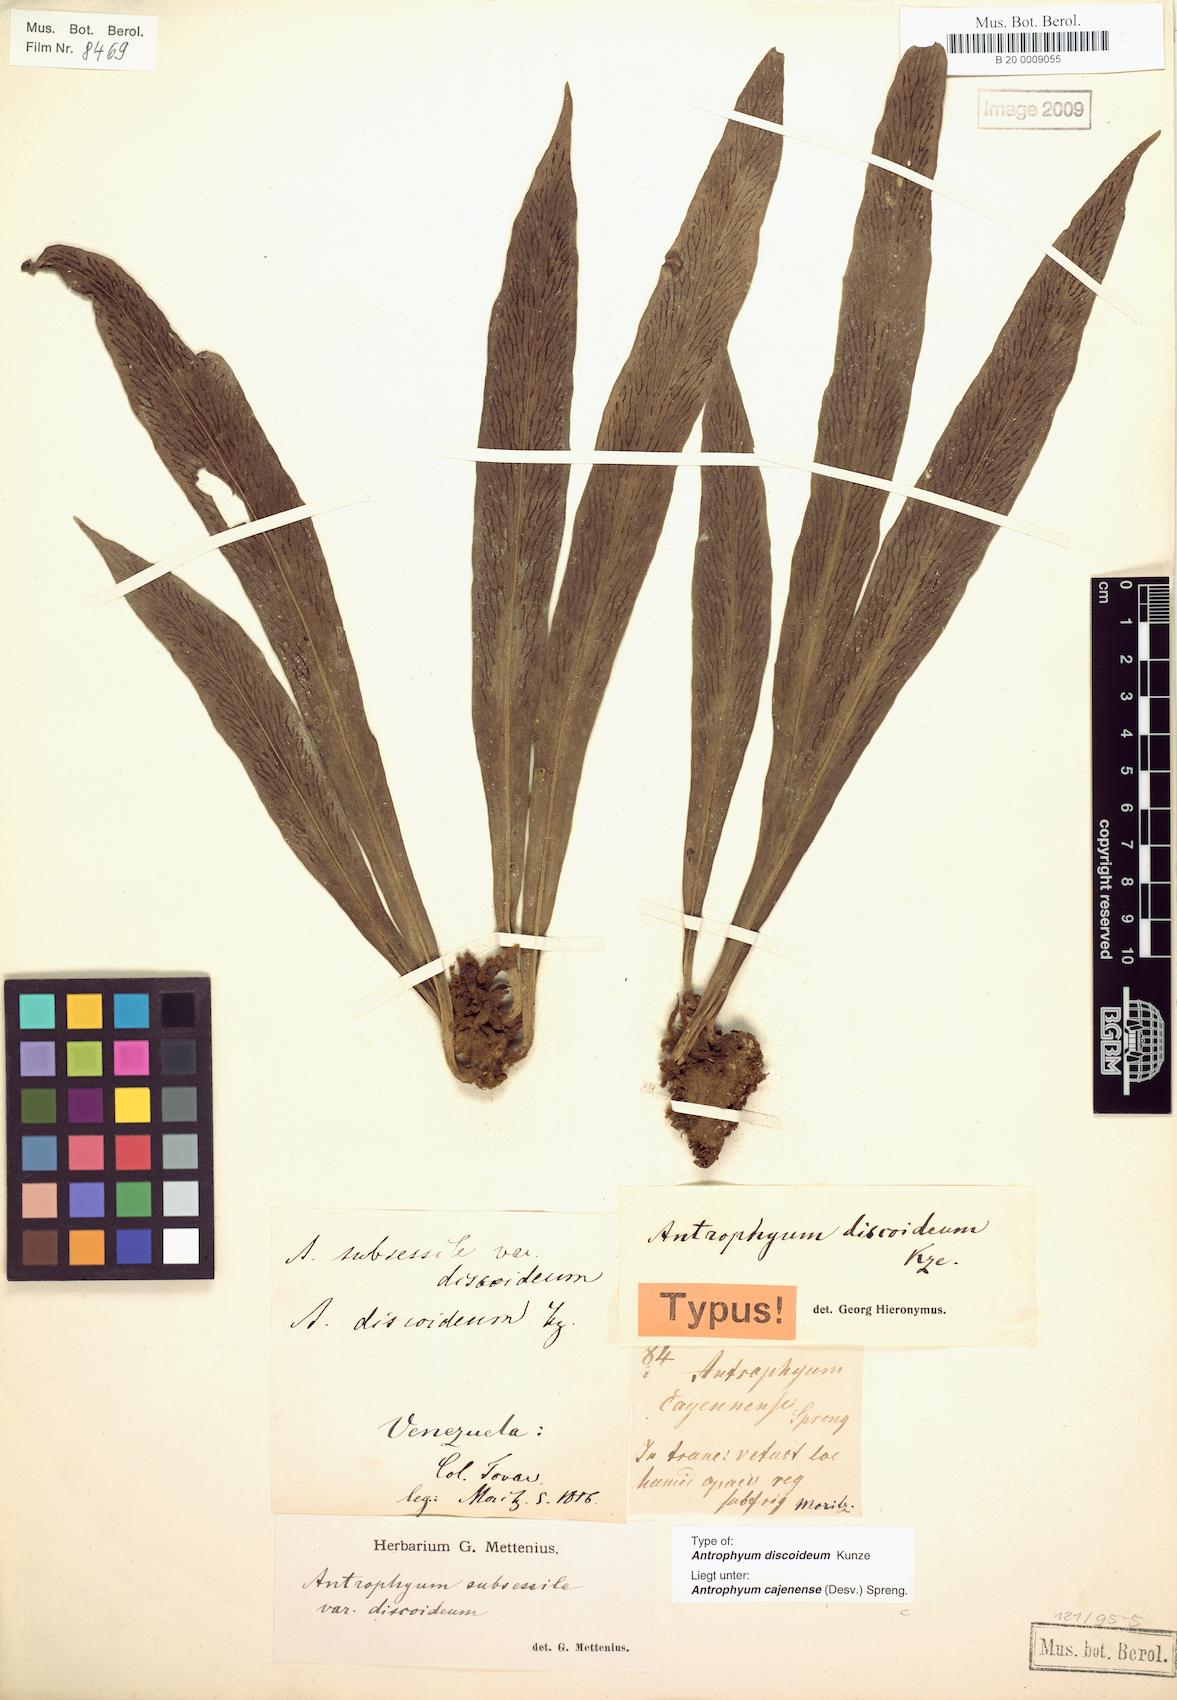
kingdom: Plantae
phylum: Tracheophyta
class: Polypodiopsida
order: Polypodiales
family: Pteridaceae
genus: Polytaenium
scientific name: Polytaenium cajenense
